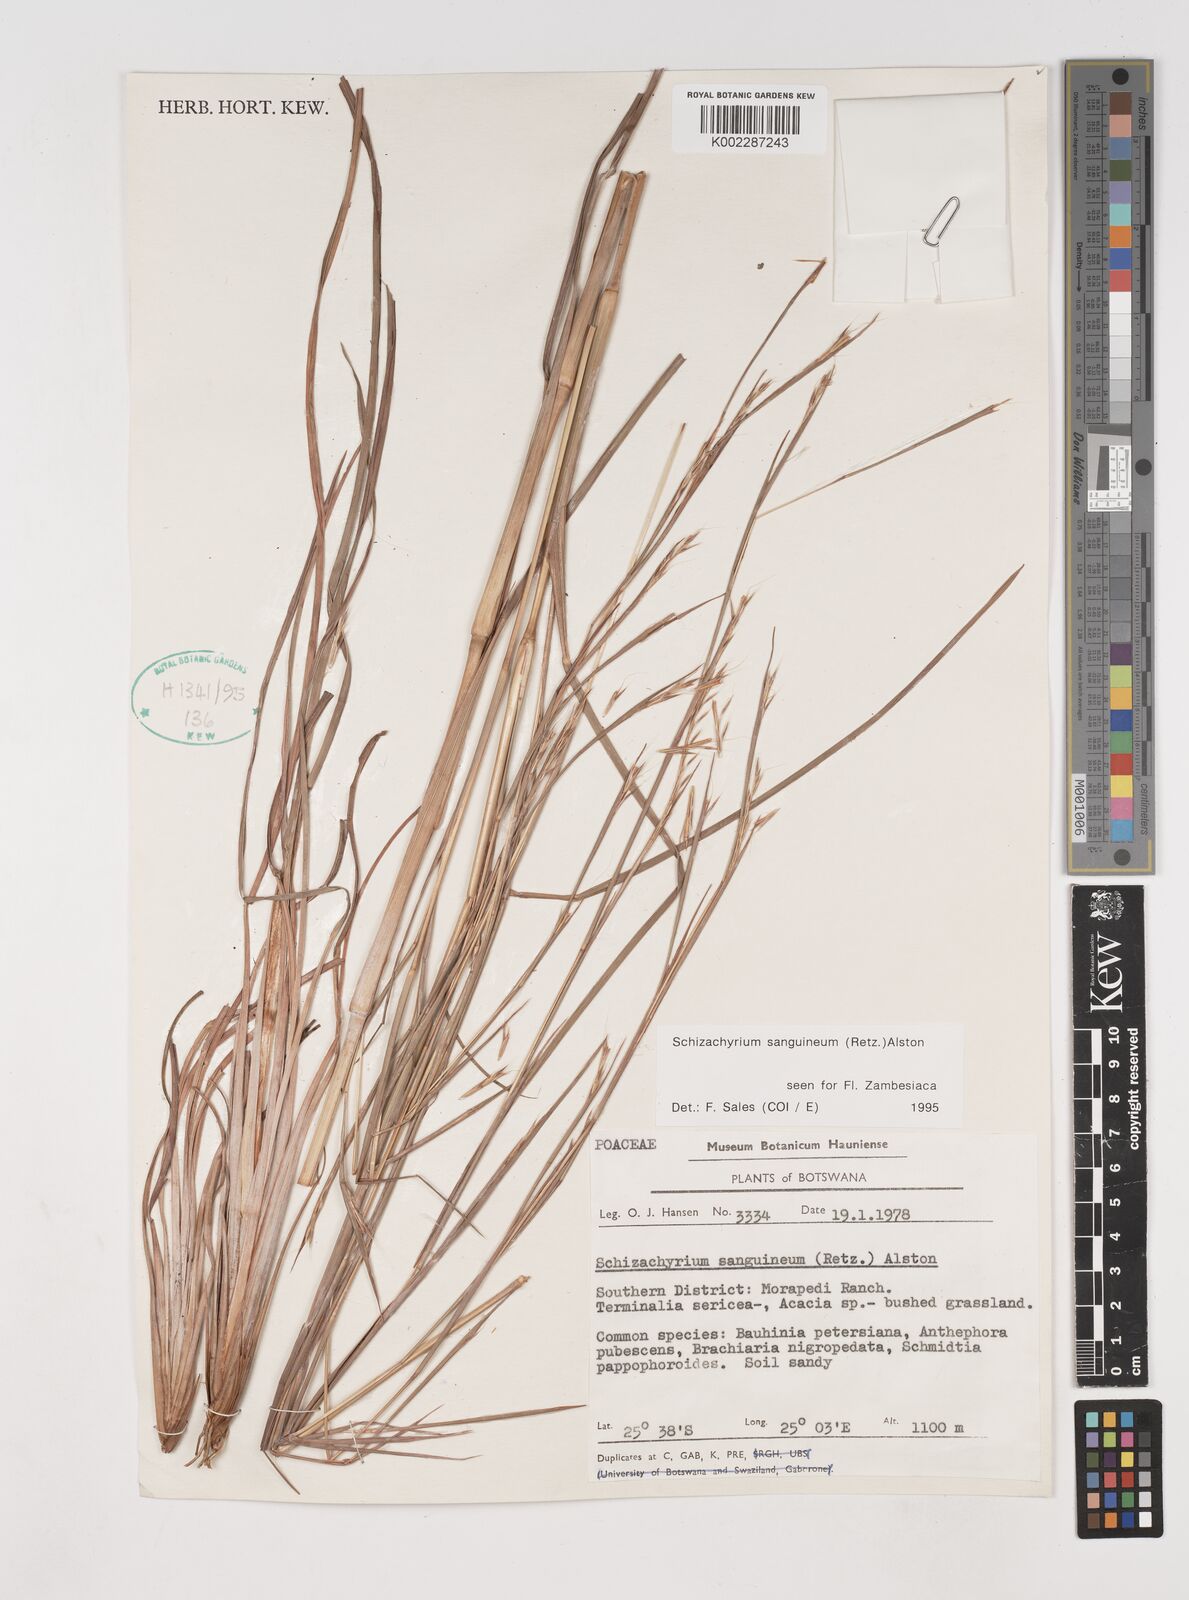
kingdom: Plantae
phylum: Tracheophyta
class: Liliopsida
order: Poales
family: Poaceae
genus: Schizachyrium
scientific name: Schizachyrium sanguineum
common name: Crimson bluestem
